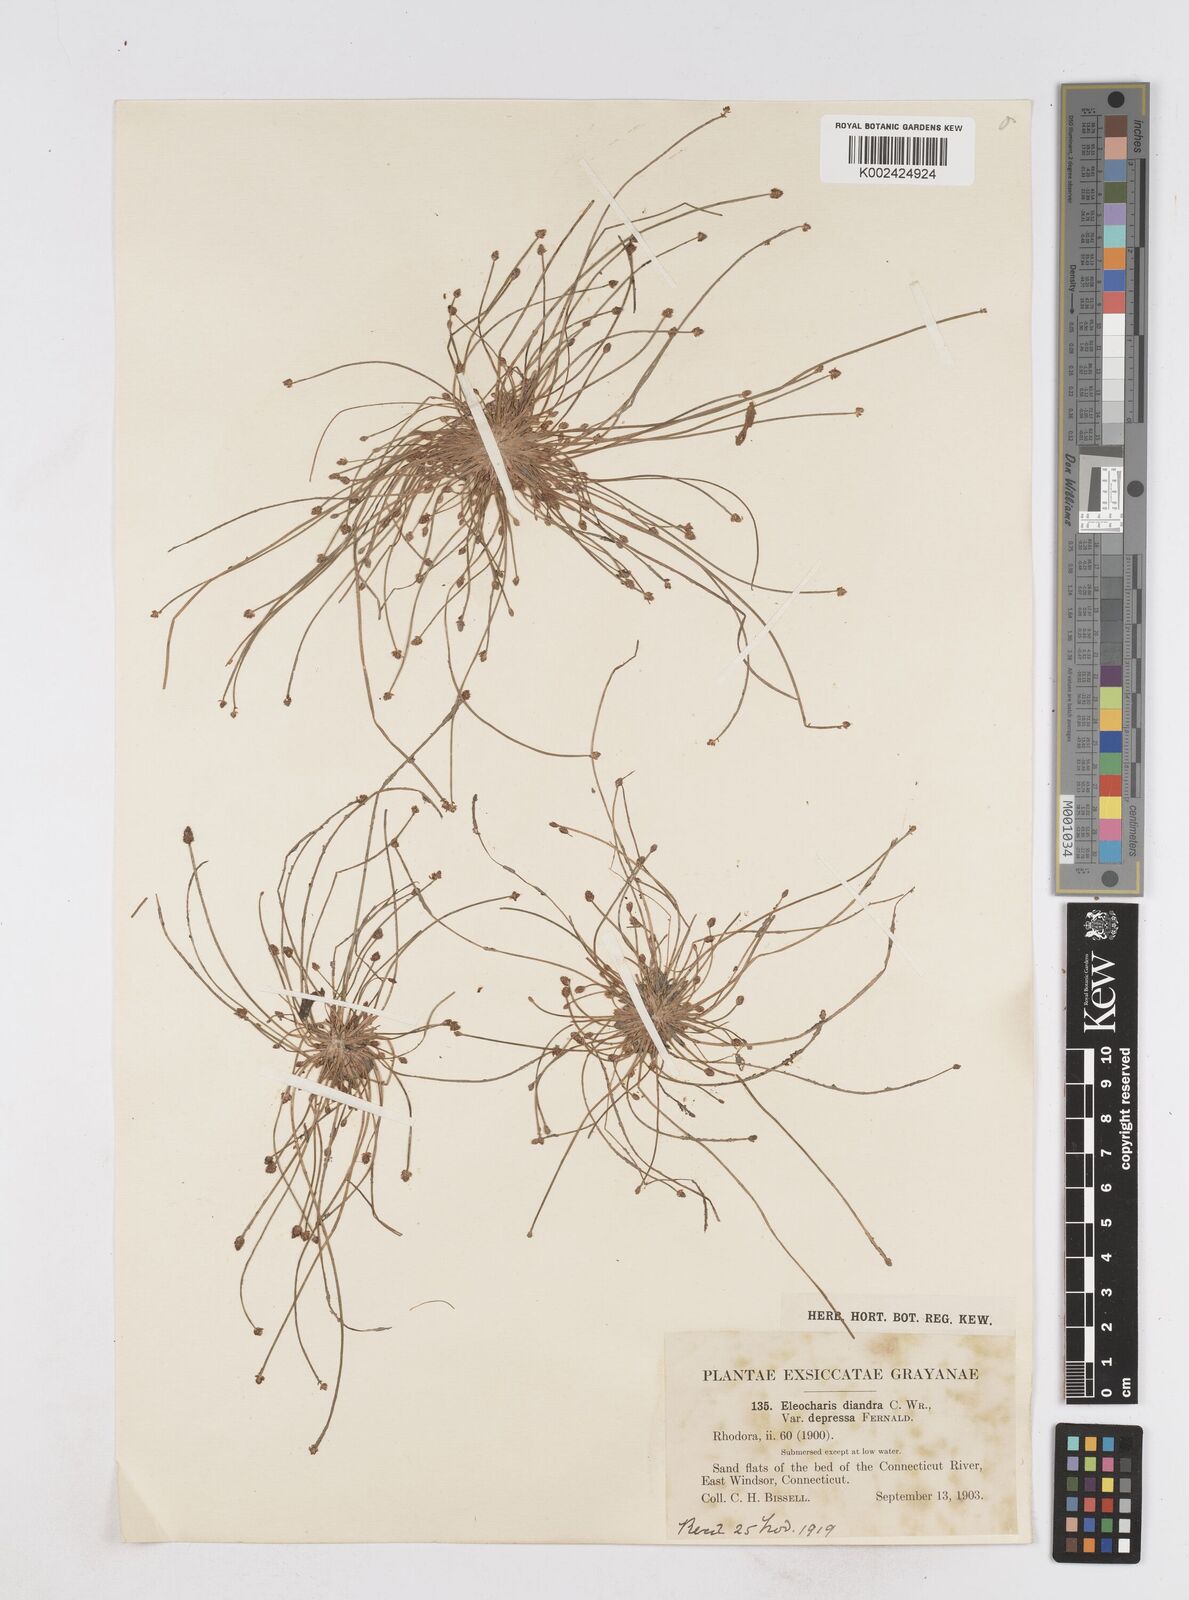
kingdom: Plantae
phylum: Tracheophyta
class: Liliopsida
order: Poales
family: Cyperaceae
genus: Eleocharis
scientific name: Eleocharis ovata
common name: Oval spike-rush
